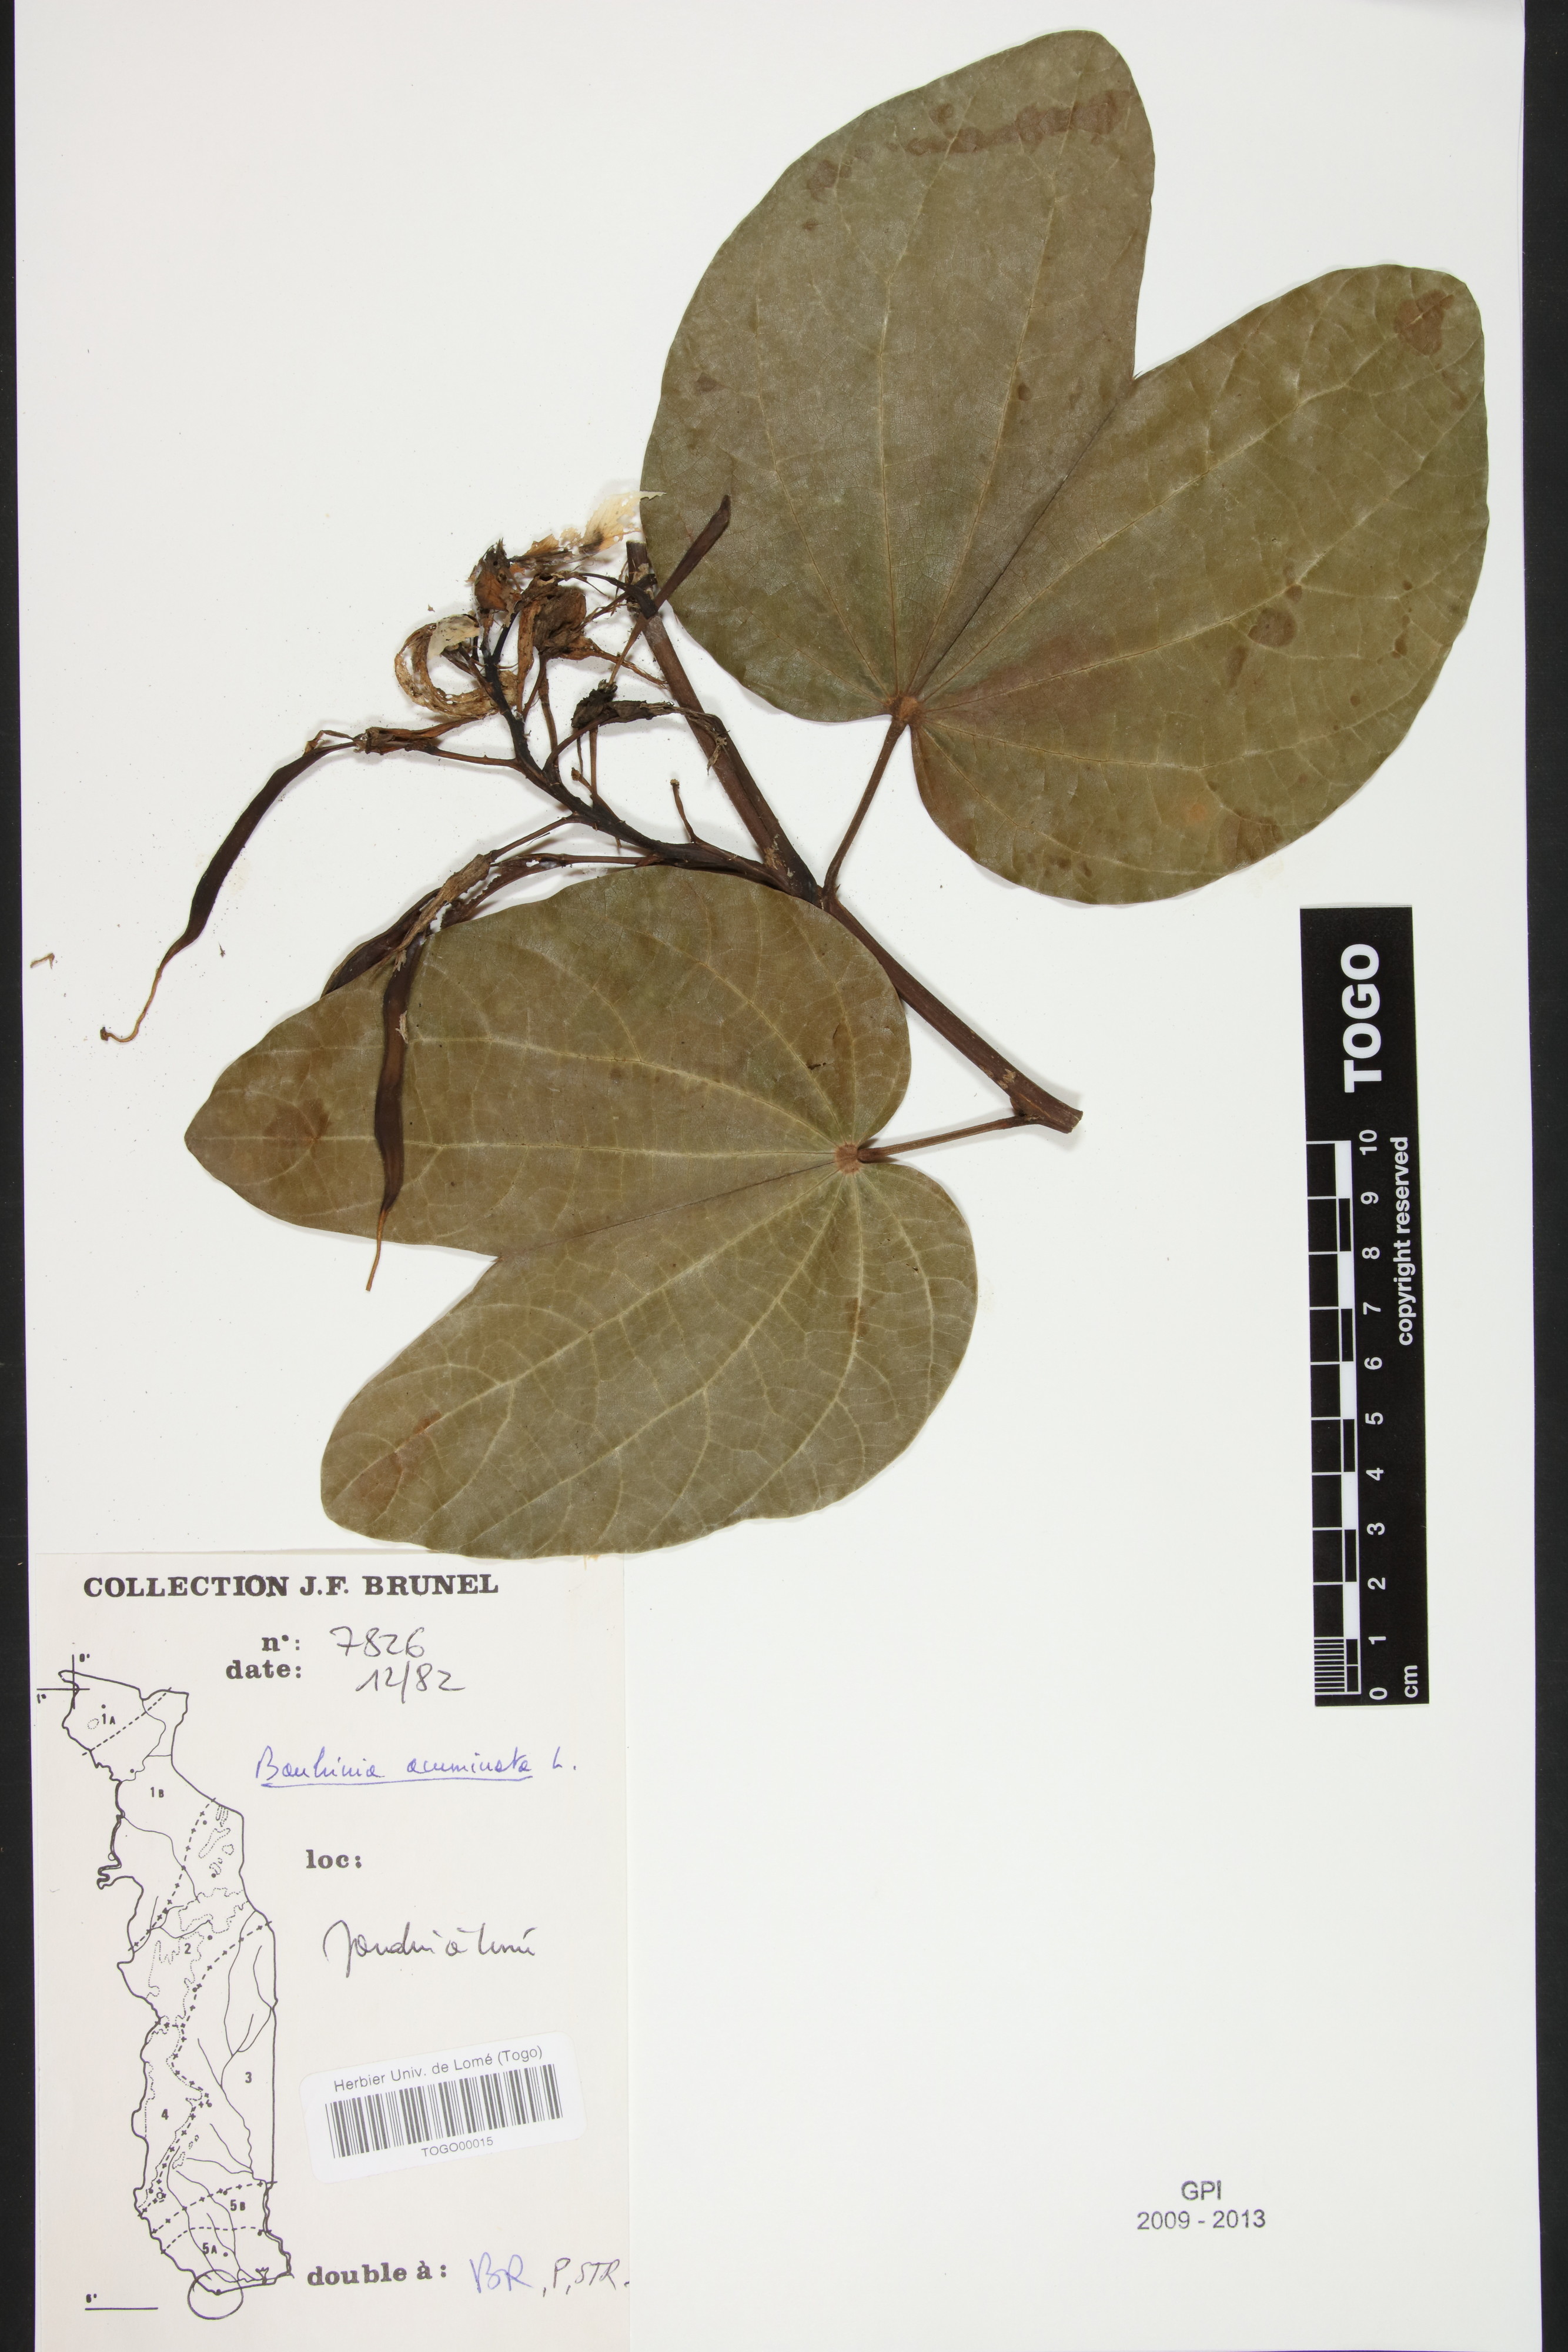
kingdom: Plantae
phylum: Tracheophyta
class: Magnoliopsida
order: Fabales
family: Fabaceae
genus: Bauhinia
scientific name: Bauhinia acuminata
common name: Dwarf white bauhinia
